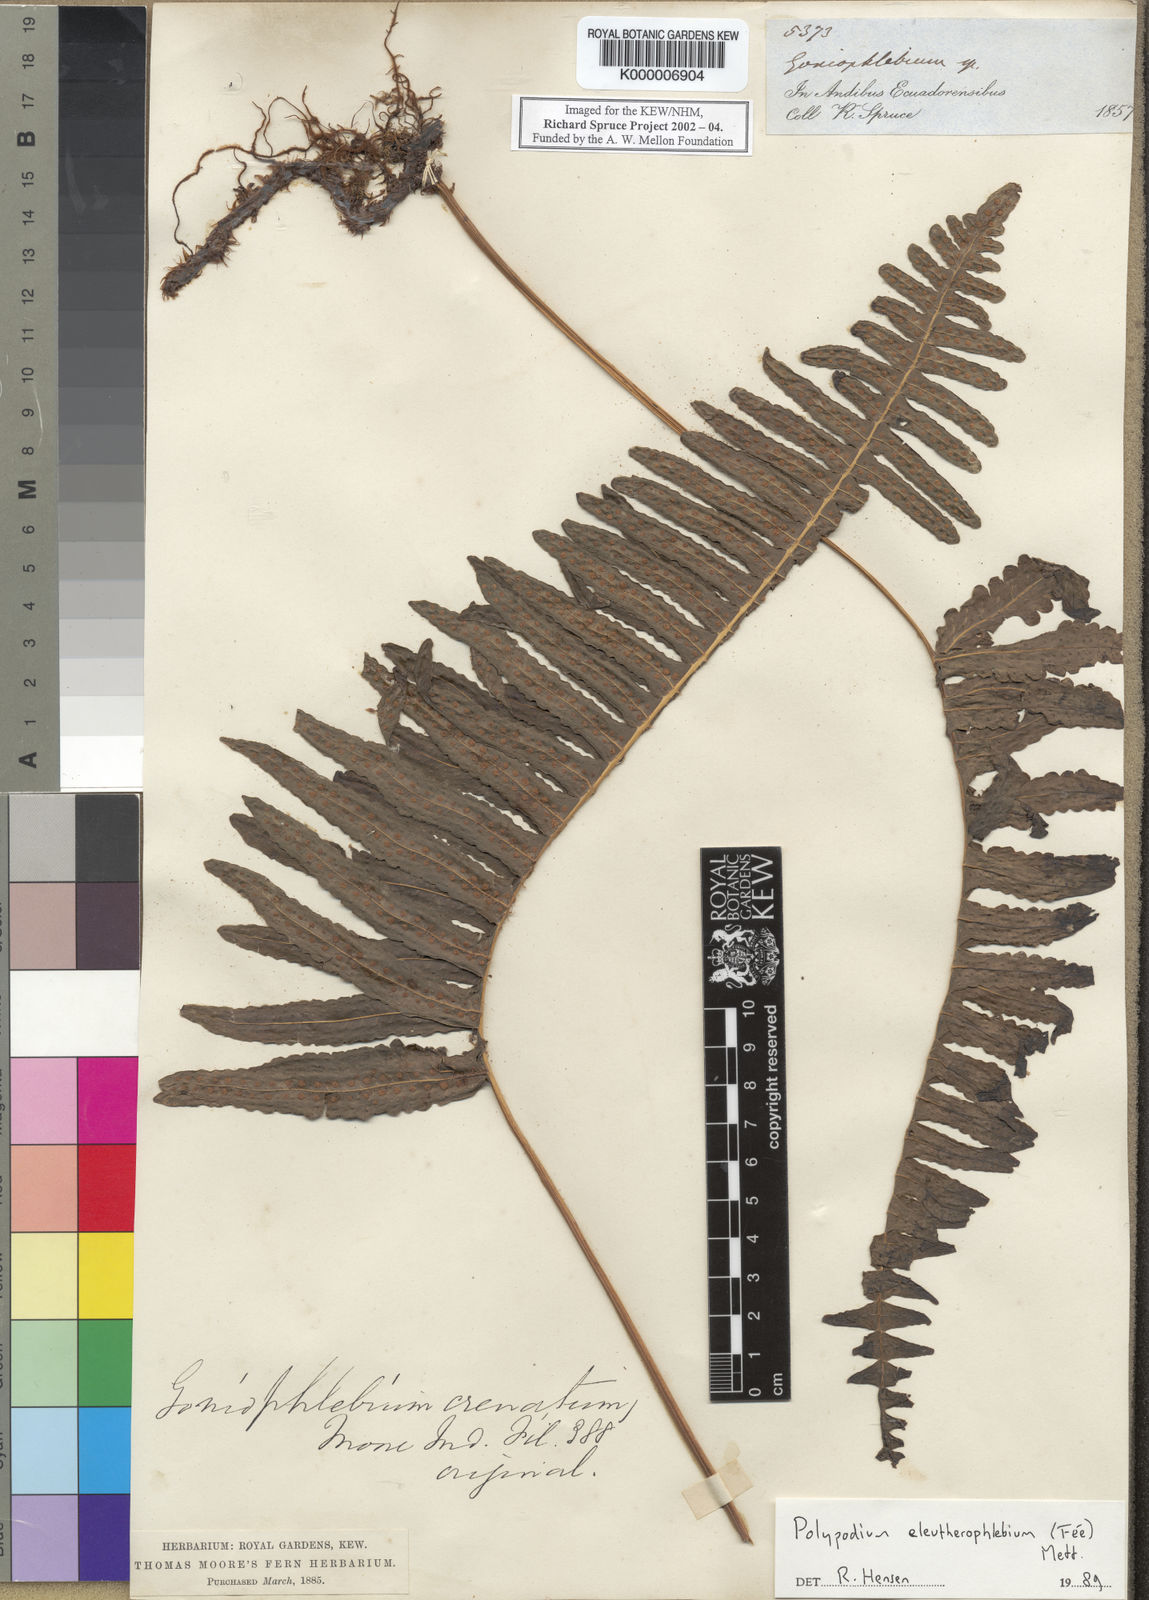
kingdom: Plantae
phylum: Tracheophyta
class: Polypodiopsida
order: Polypodiales
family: Polypodiaceae
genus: Polypodium
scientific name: Polypodium
